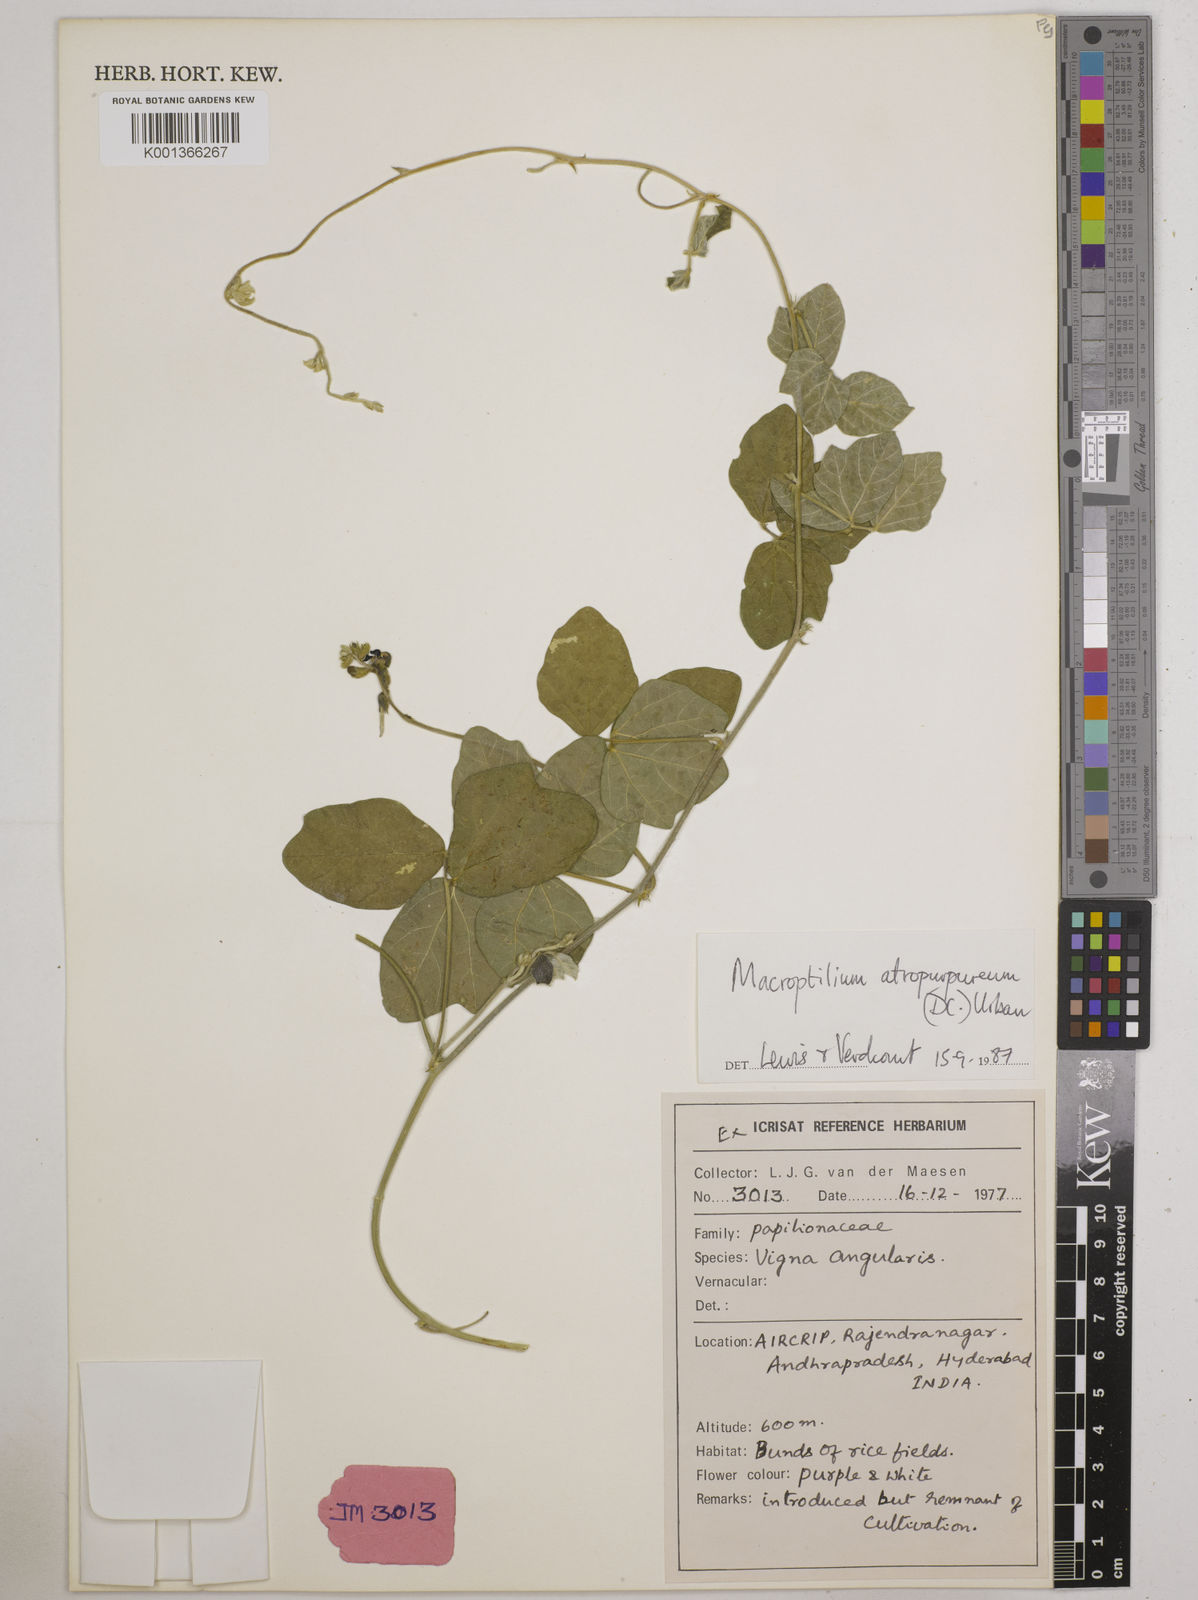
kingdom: Plantae
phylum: Tracheophyta
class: Magnoliopsida
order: Fabales
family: Fabaceae
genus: Macroptilium
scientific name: Macroptilium atropurpureum
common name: Purple bushbean
